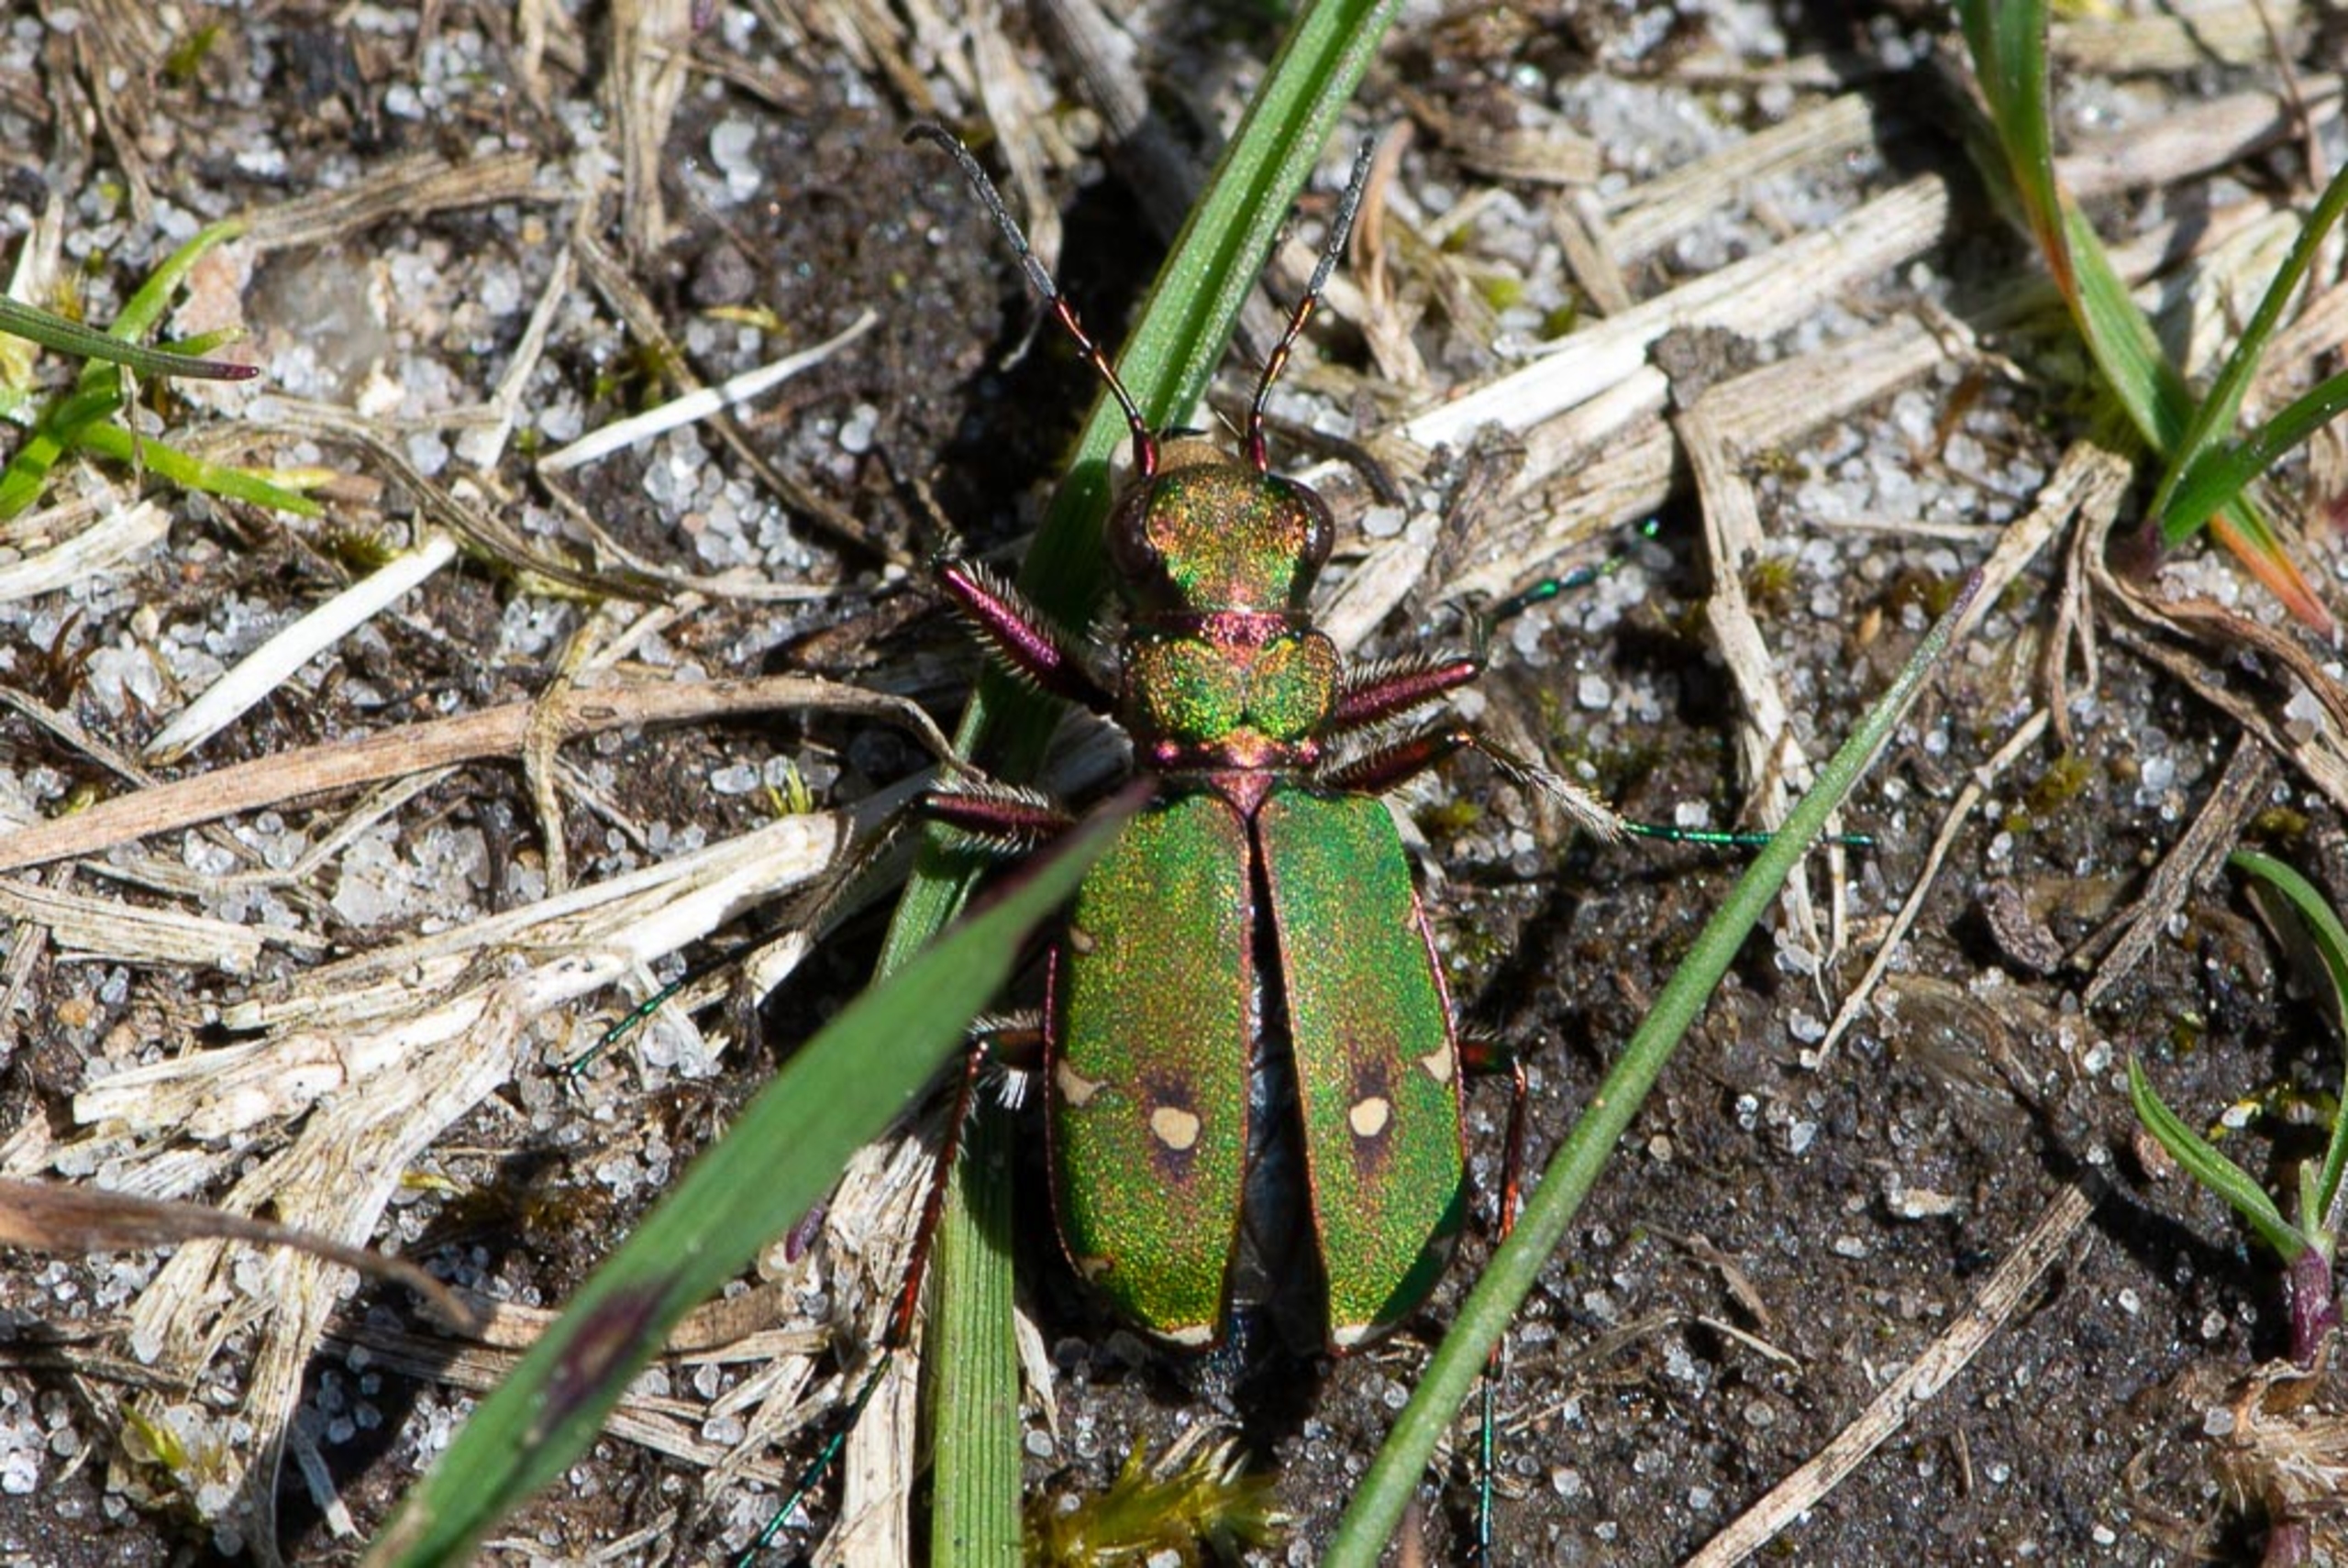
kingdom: Animalia
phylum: Arthropoda
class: Insecta
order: Coleoptera
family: Carabidae
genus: Cicindela
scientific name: Cicindela campestris
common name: Grøn sandspringer
